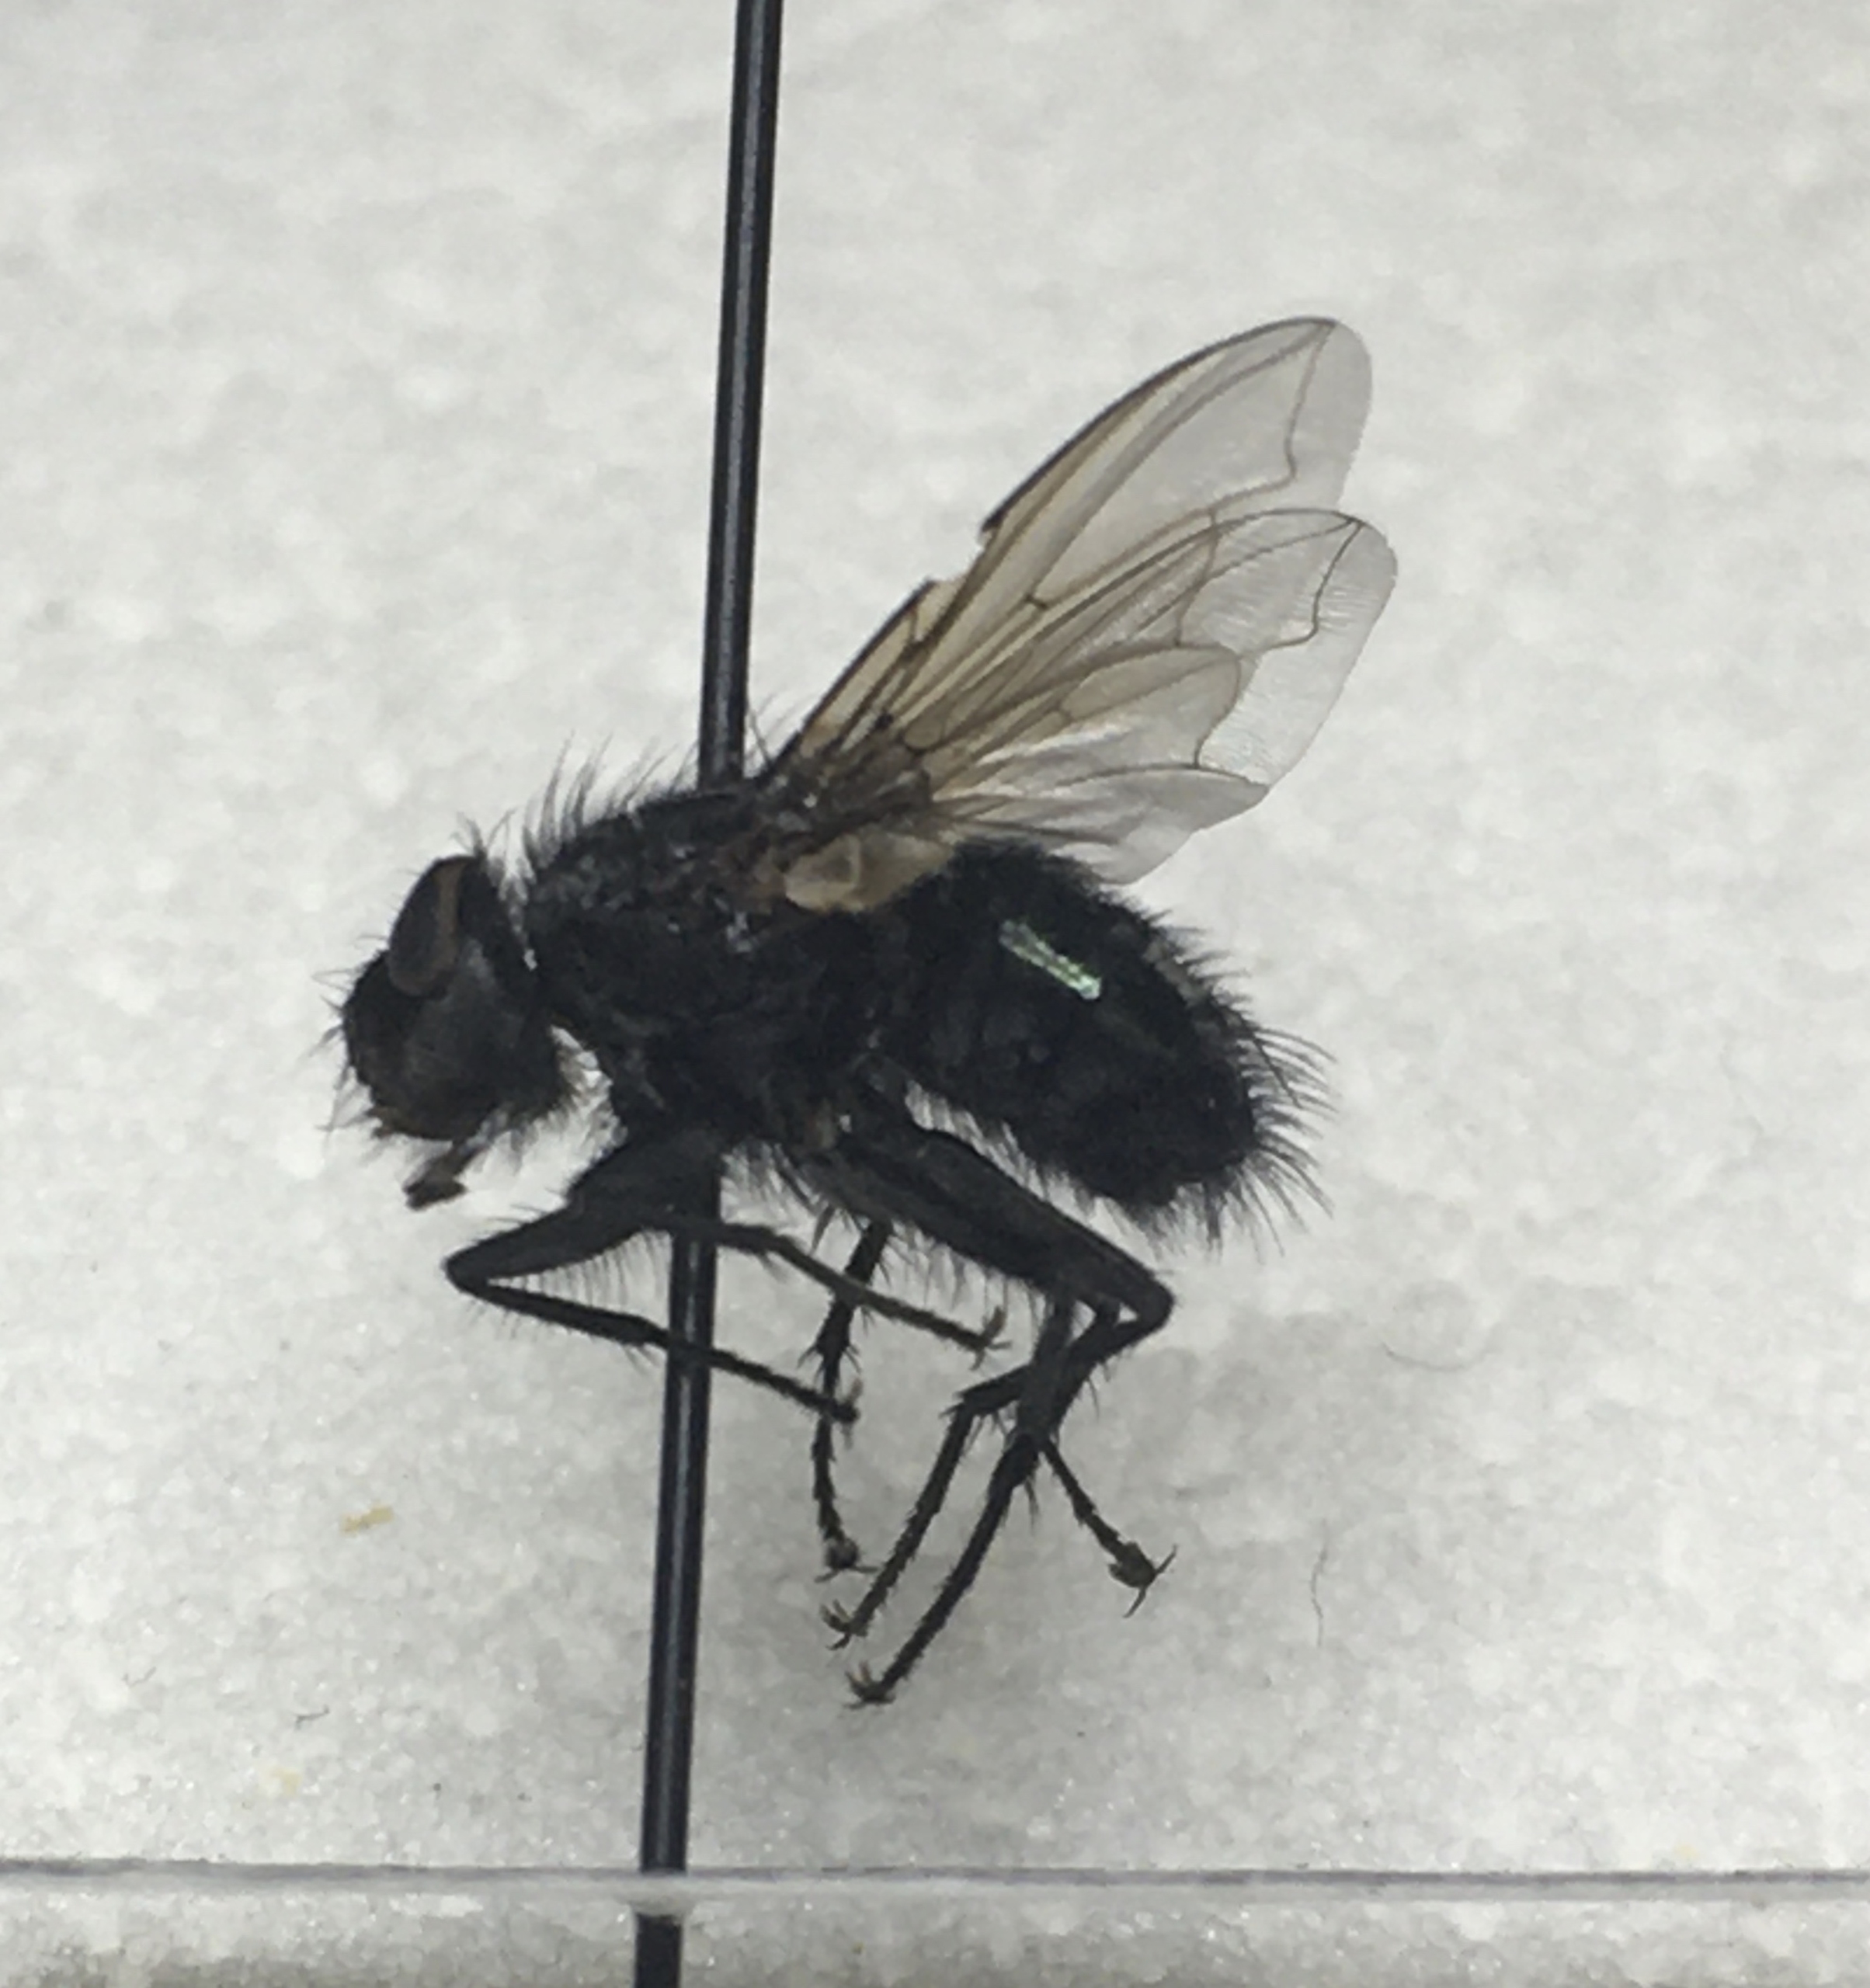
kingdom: Animalia
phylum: Arthropoda
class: Insecta
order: Diptera
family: Calliphoridae
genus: Bellardia
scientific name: Bellardia viarum
